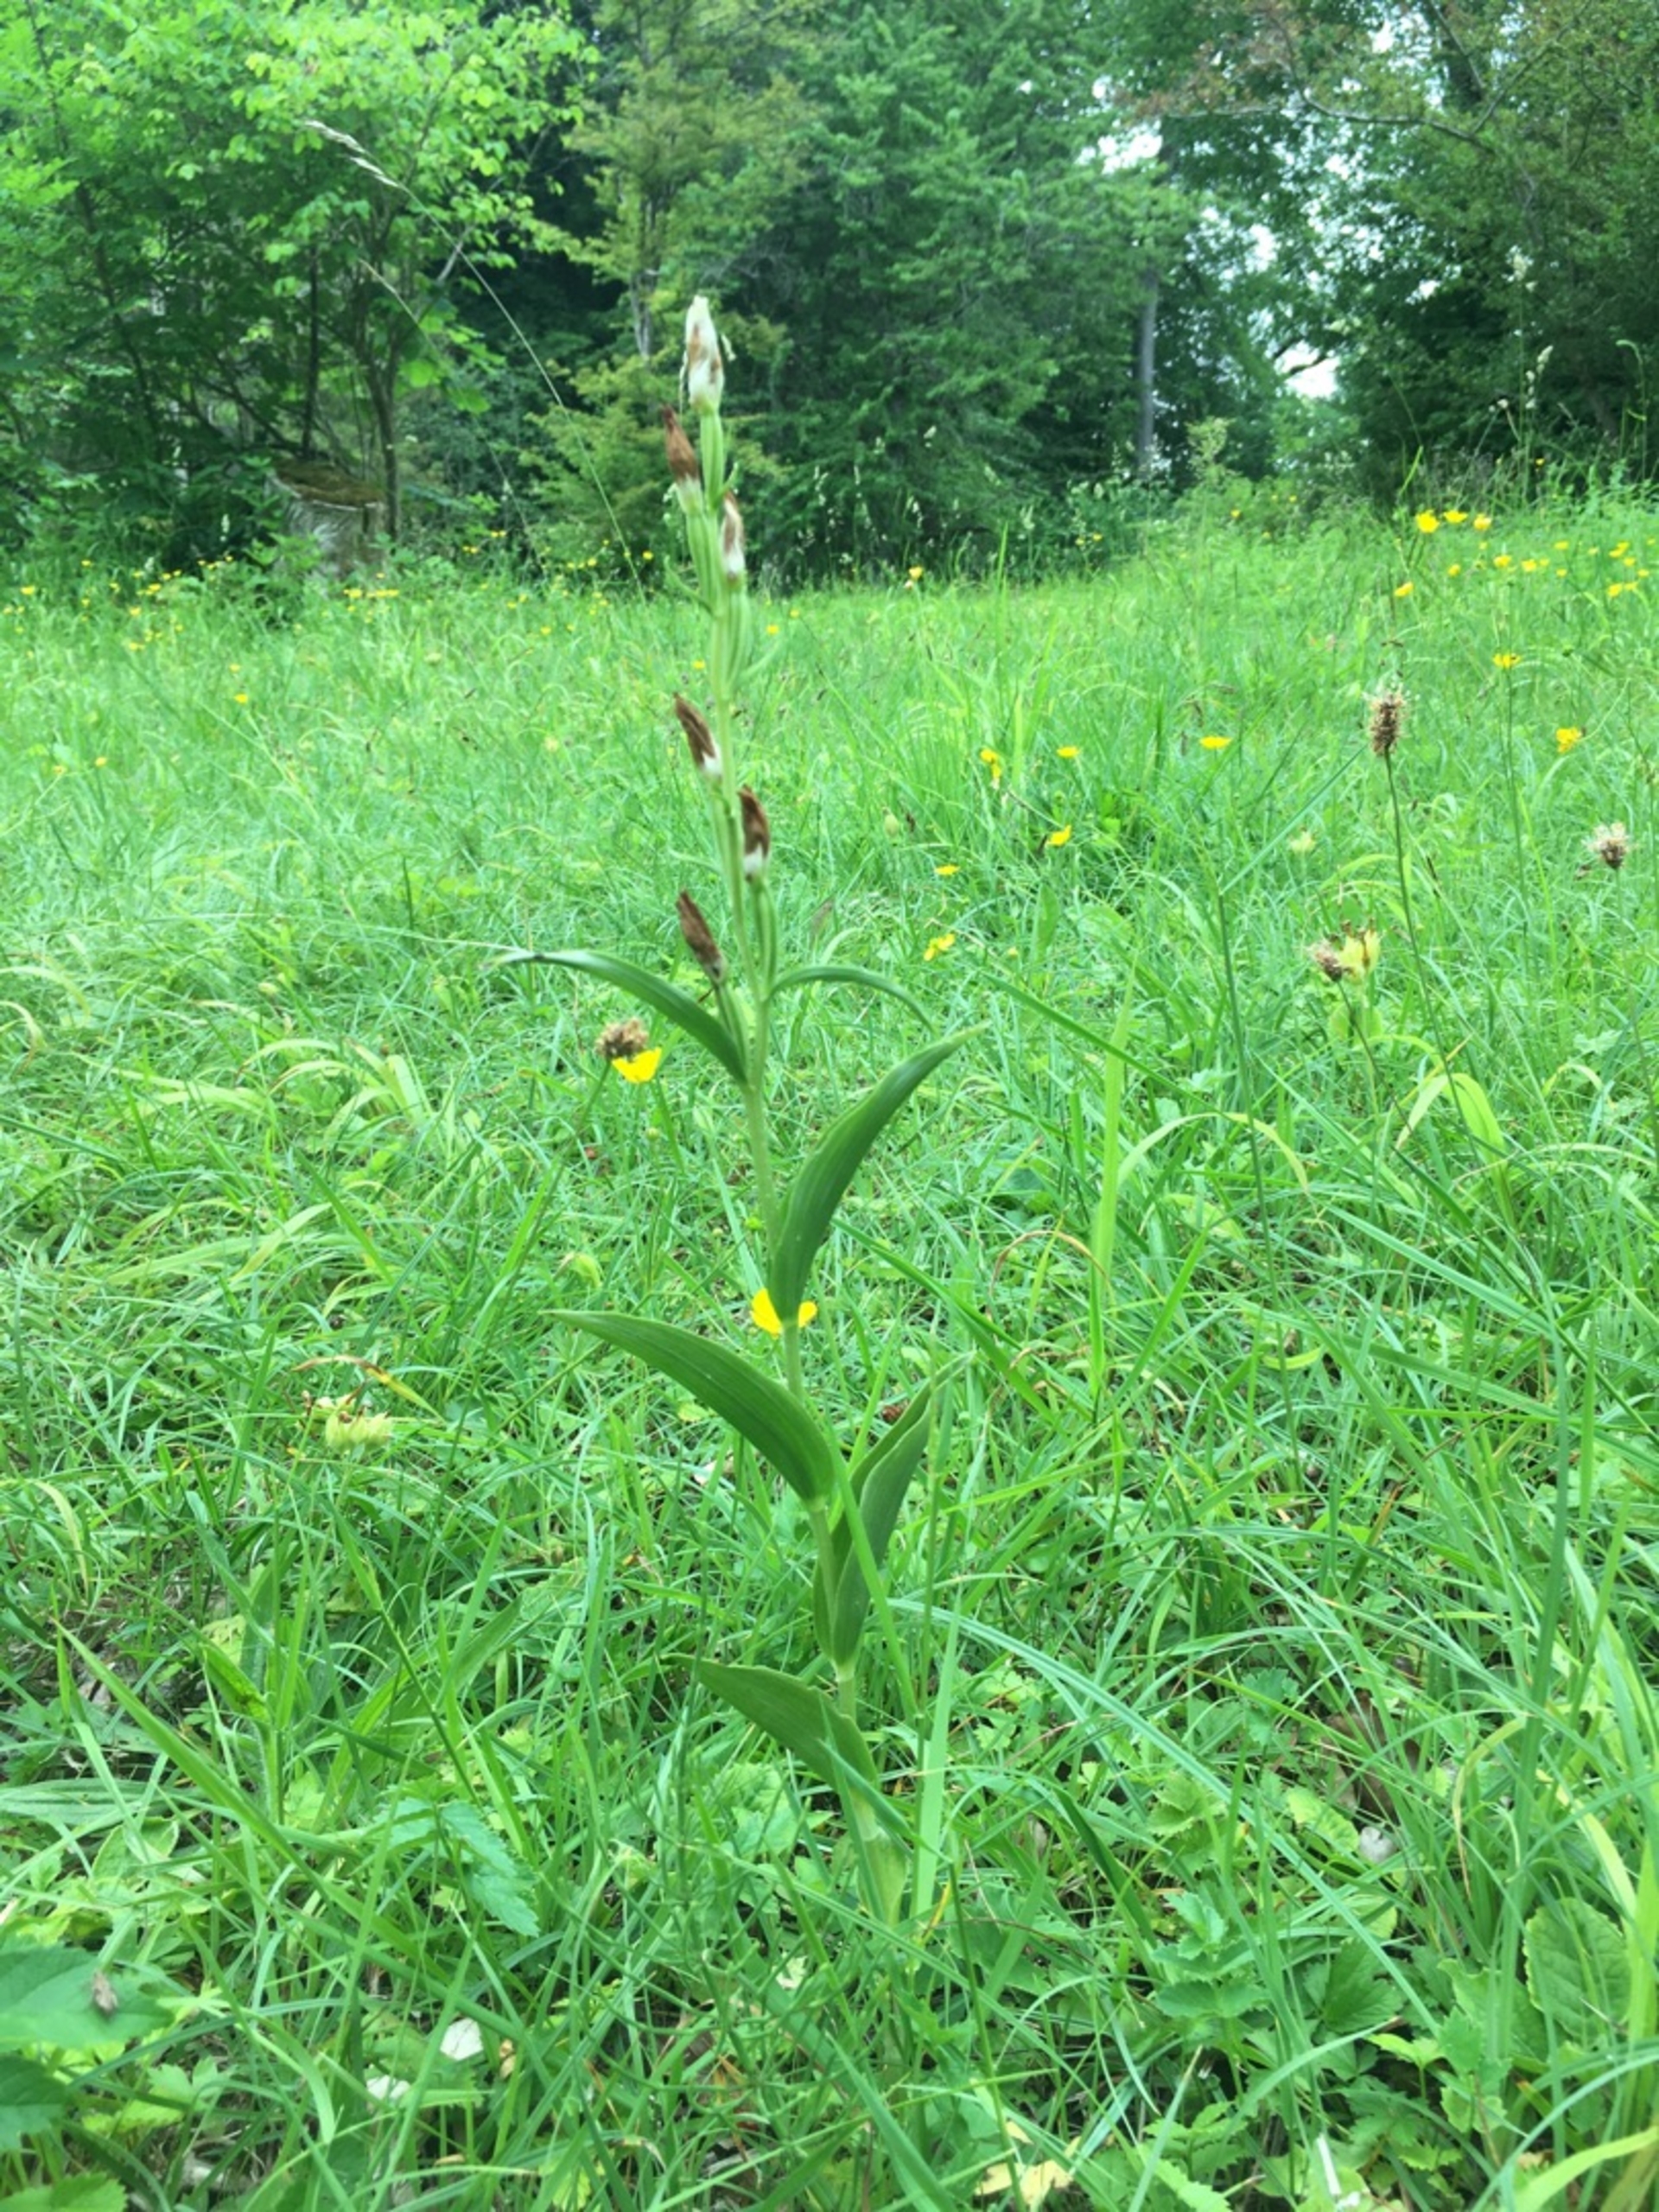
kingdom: Plantae
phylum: Tracheophyta
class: Liliopsida
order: Asparagales
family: Orchidaceae
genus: Cephalanthera
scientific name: Cephalanthera damasonium
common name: Hvidgul skovlilje
